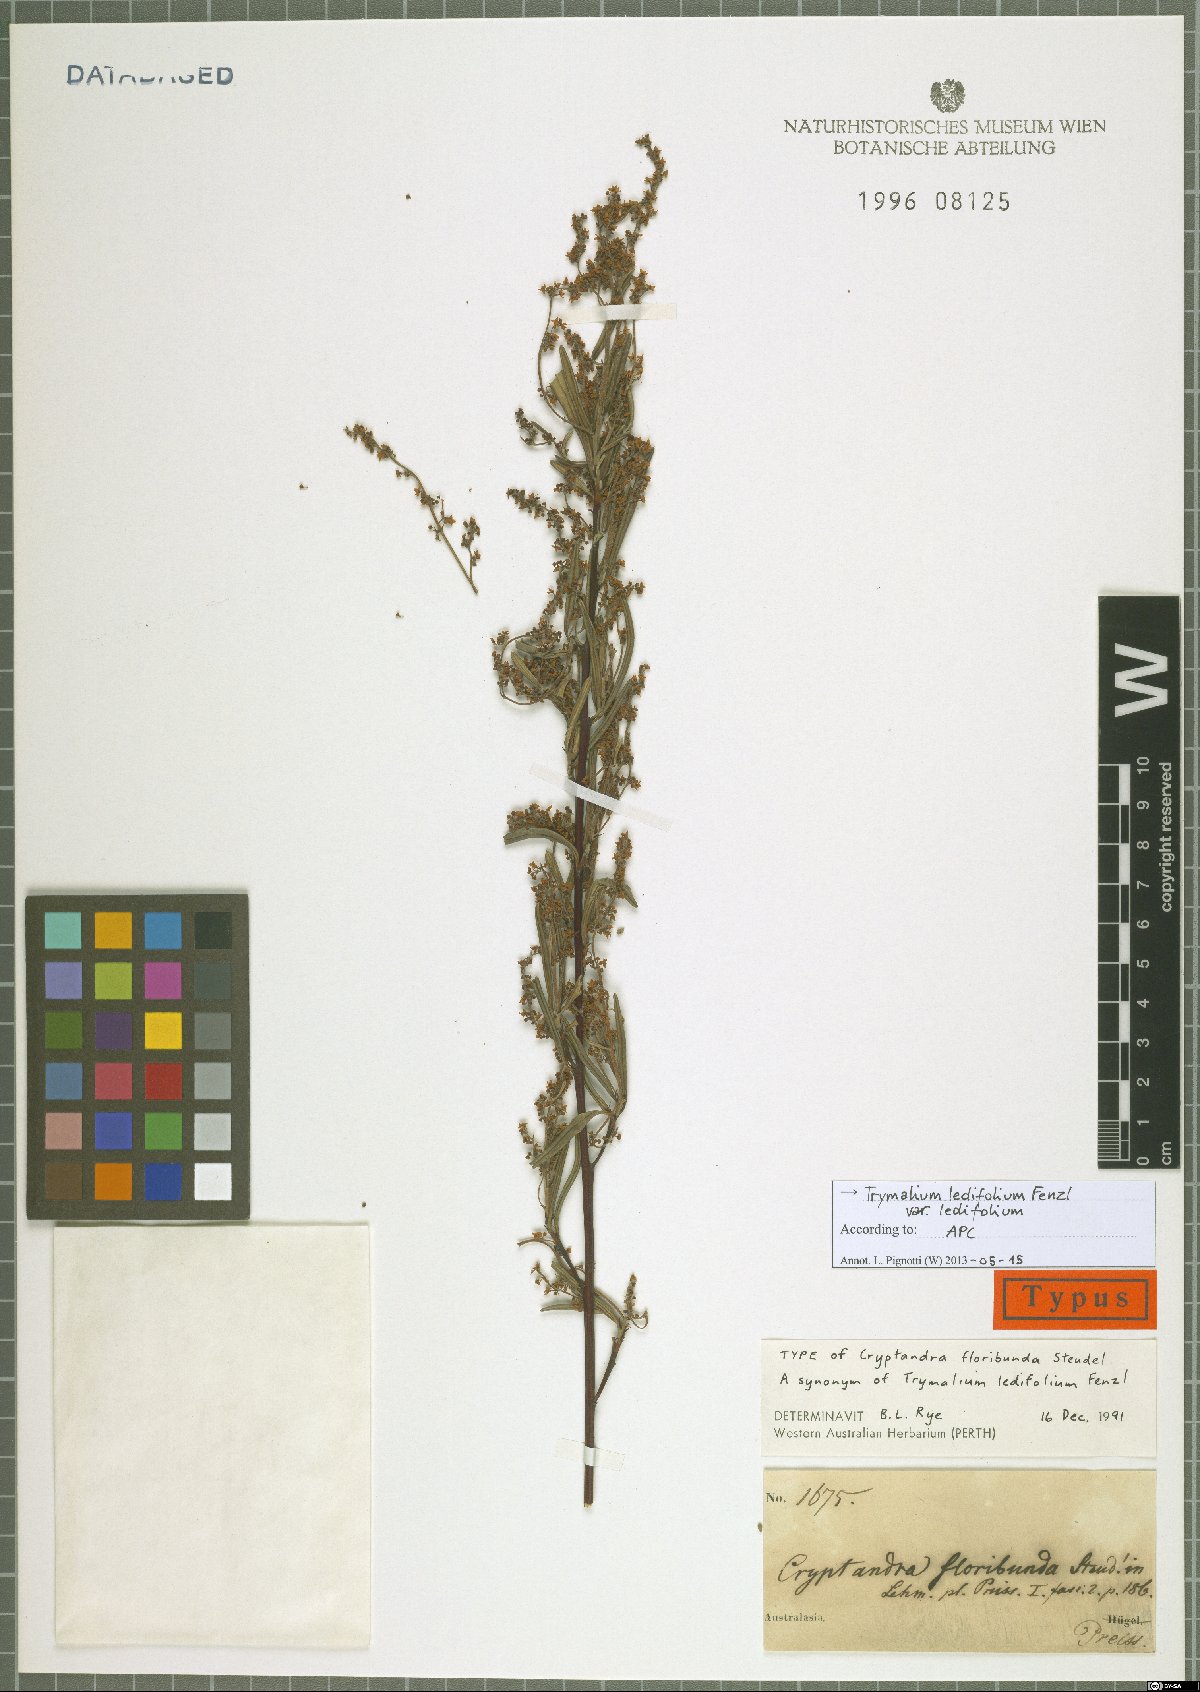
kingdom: Plantae
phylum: Tracheophyta
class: Magnoliopsida
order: Rosales
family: Rhamnaceae
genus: Trymalium
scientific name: Trymalium ledifolium
